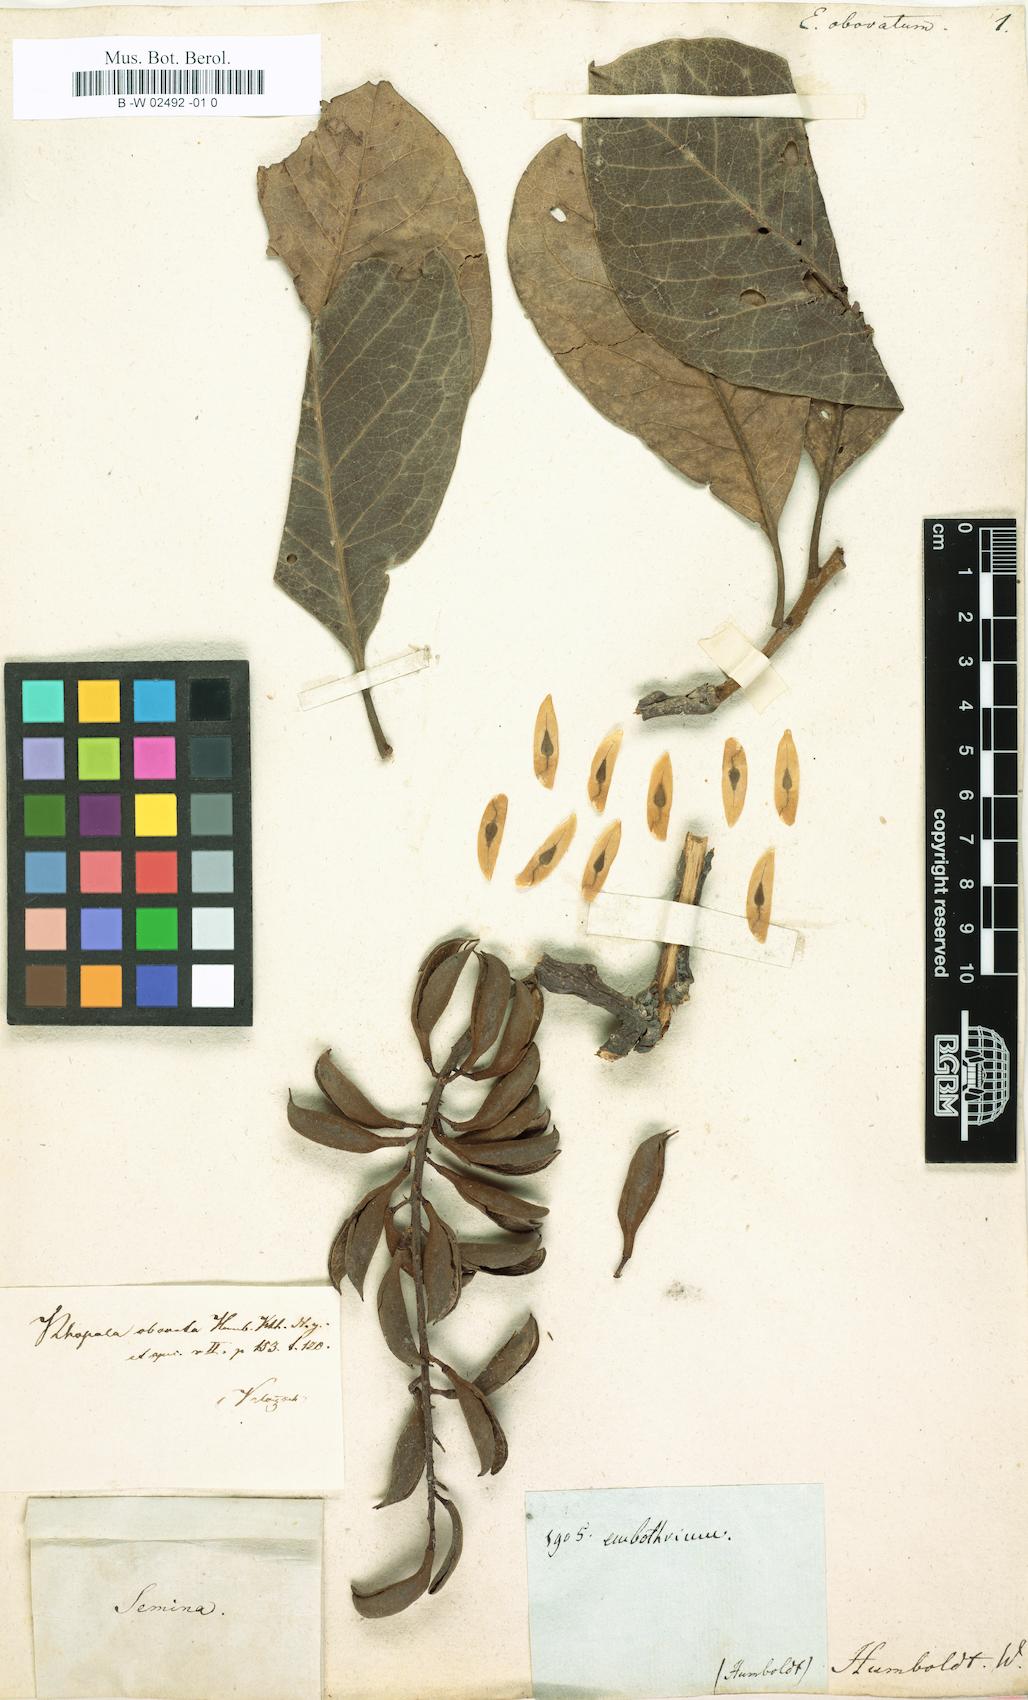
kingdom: Plantae
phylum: Tracheophyta
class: Magnoliopsida
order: Proteales
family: Proteaceae
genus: Embothrium
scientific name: Embothrium
